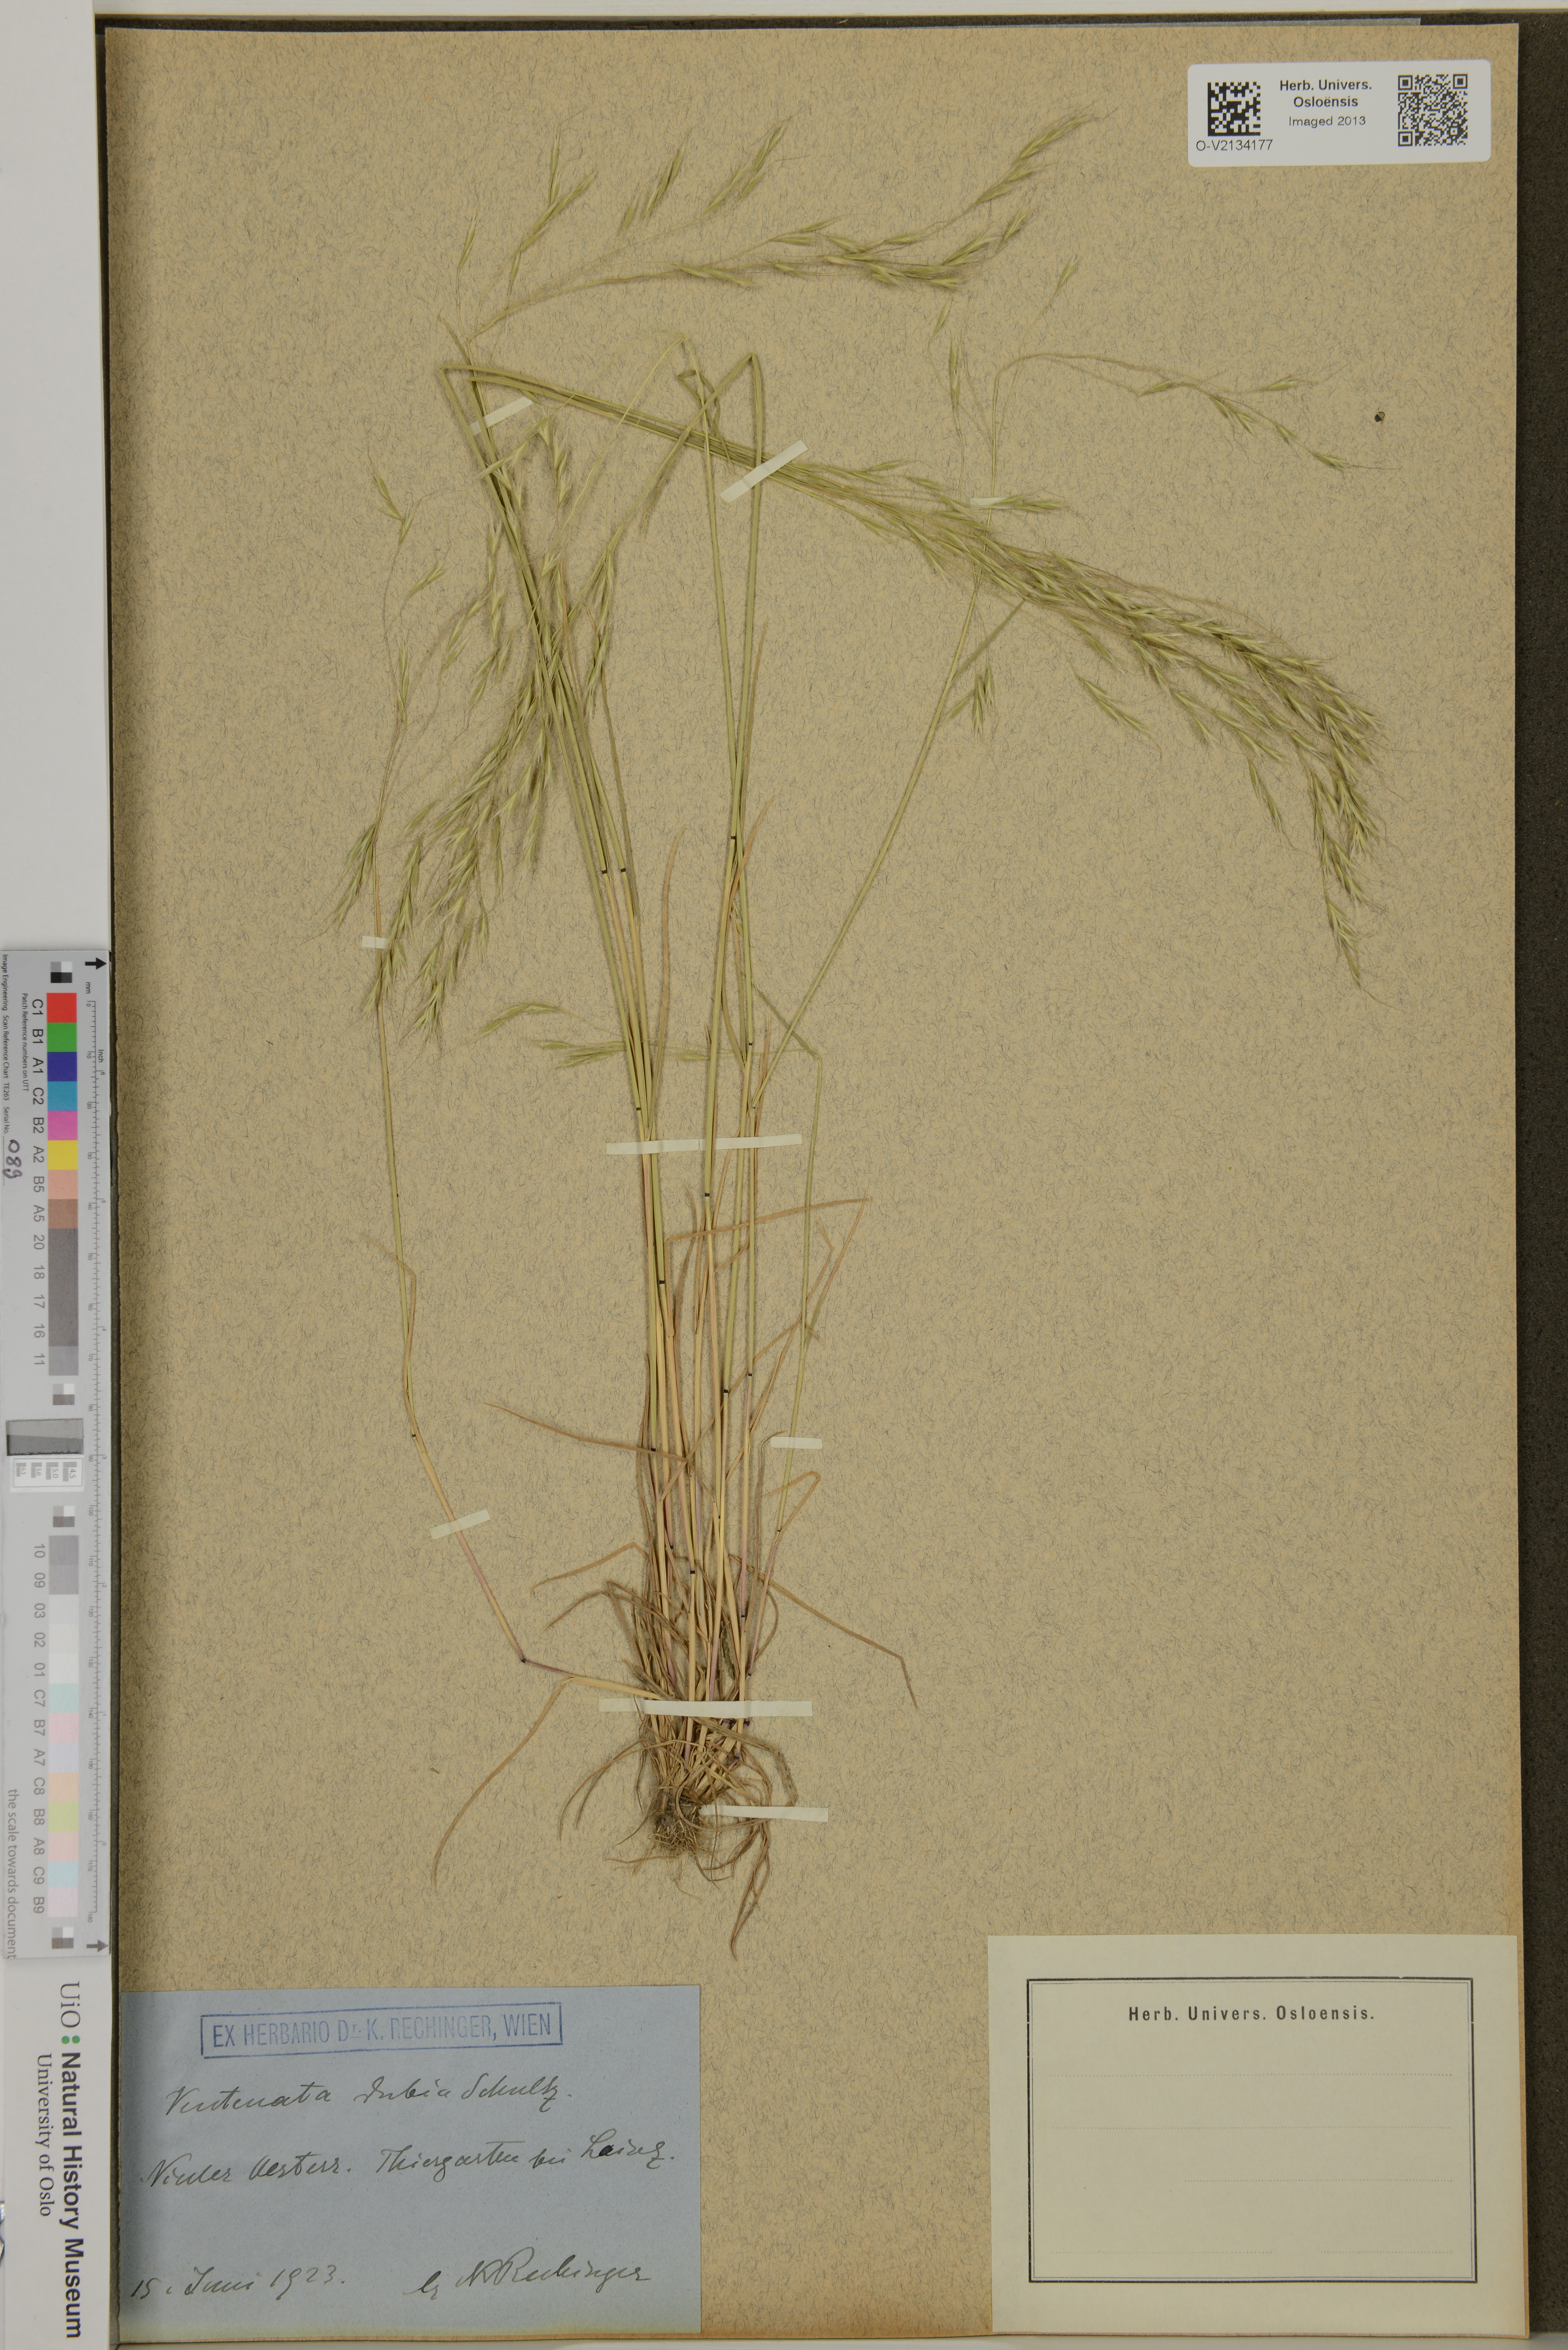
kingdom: Plantae
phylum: Tracheophyta
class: Liliopsida
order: Poales
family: Poaceae
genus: Ventenata
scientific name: Ventenata dubia
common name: North africa grass
